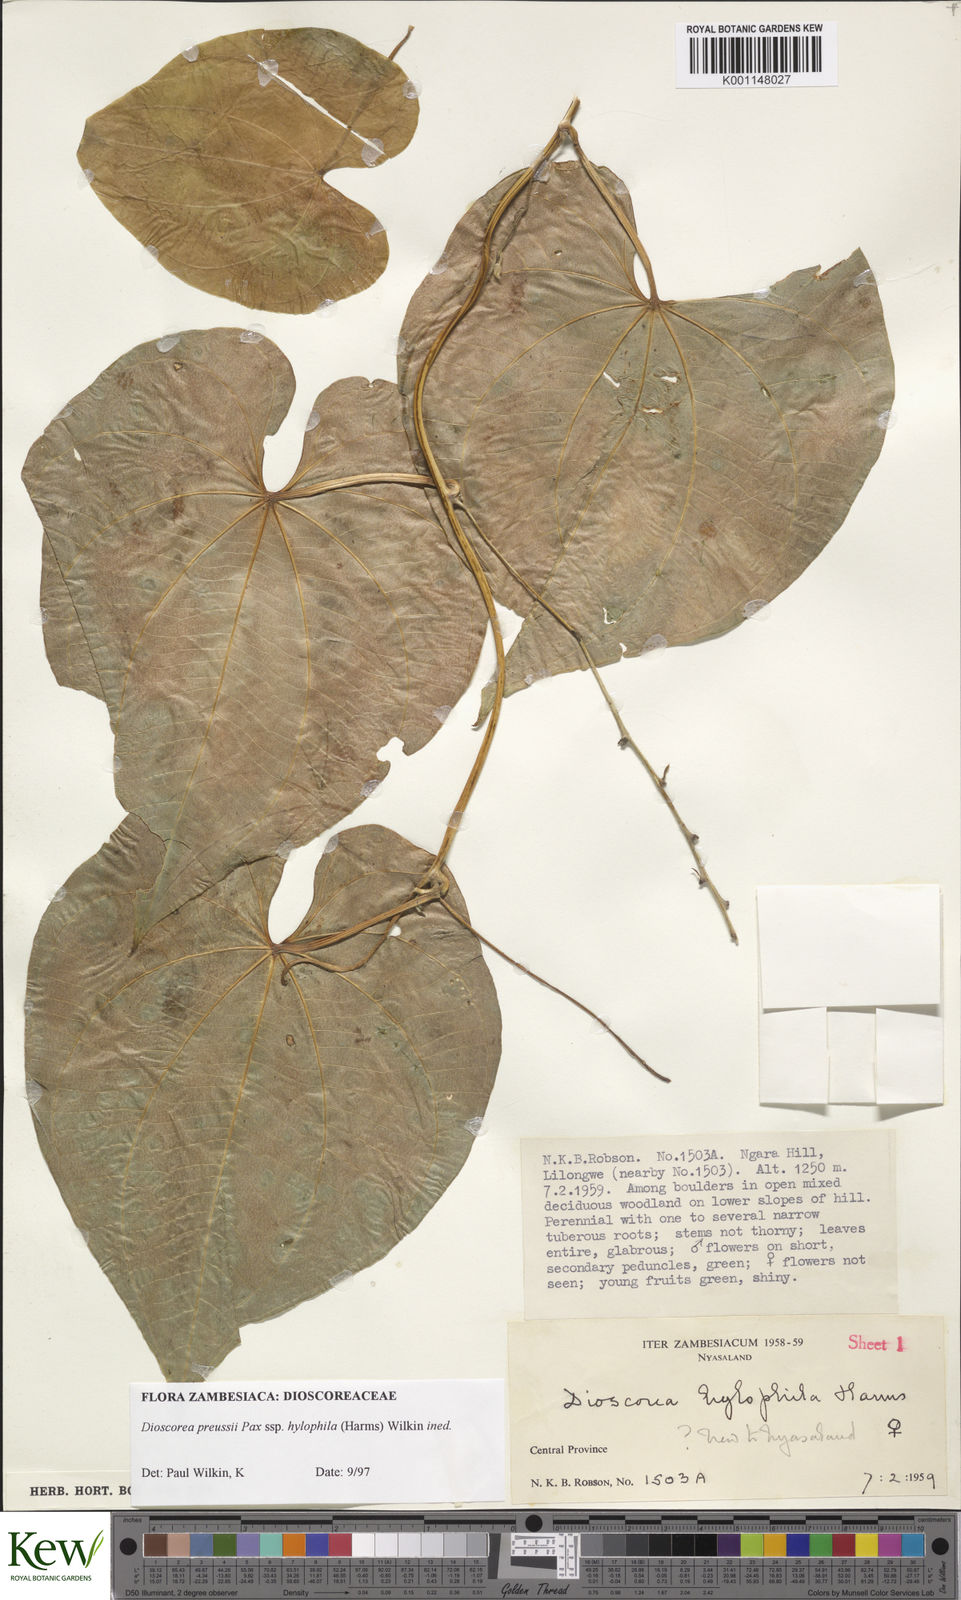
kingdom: Plantae
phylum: Tracheophyta
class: Liliopsida
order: Dioscoreales
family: Dioscoreaceae
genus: Dioscorea
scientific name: Dioscorea preussii
